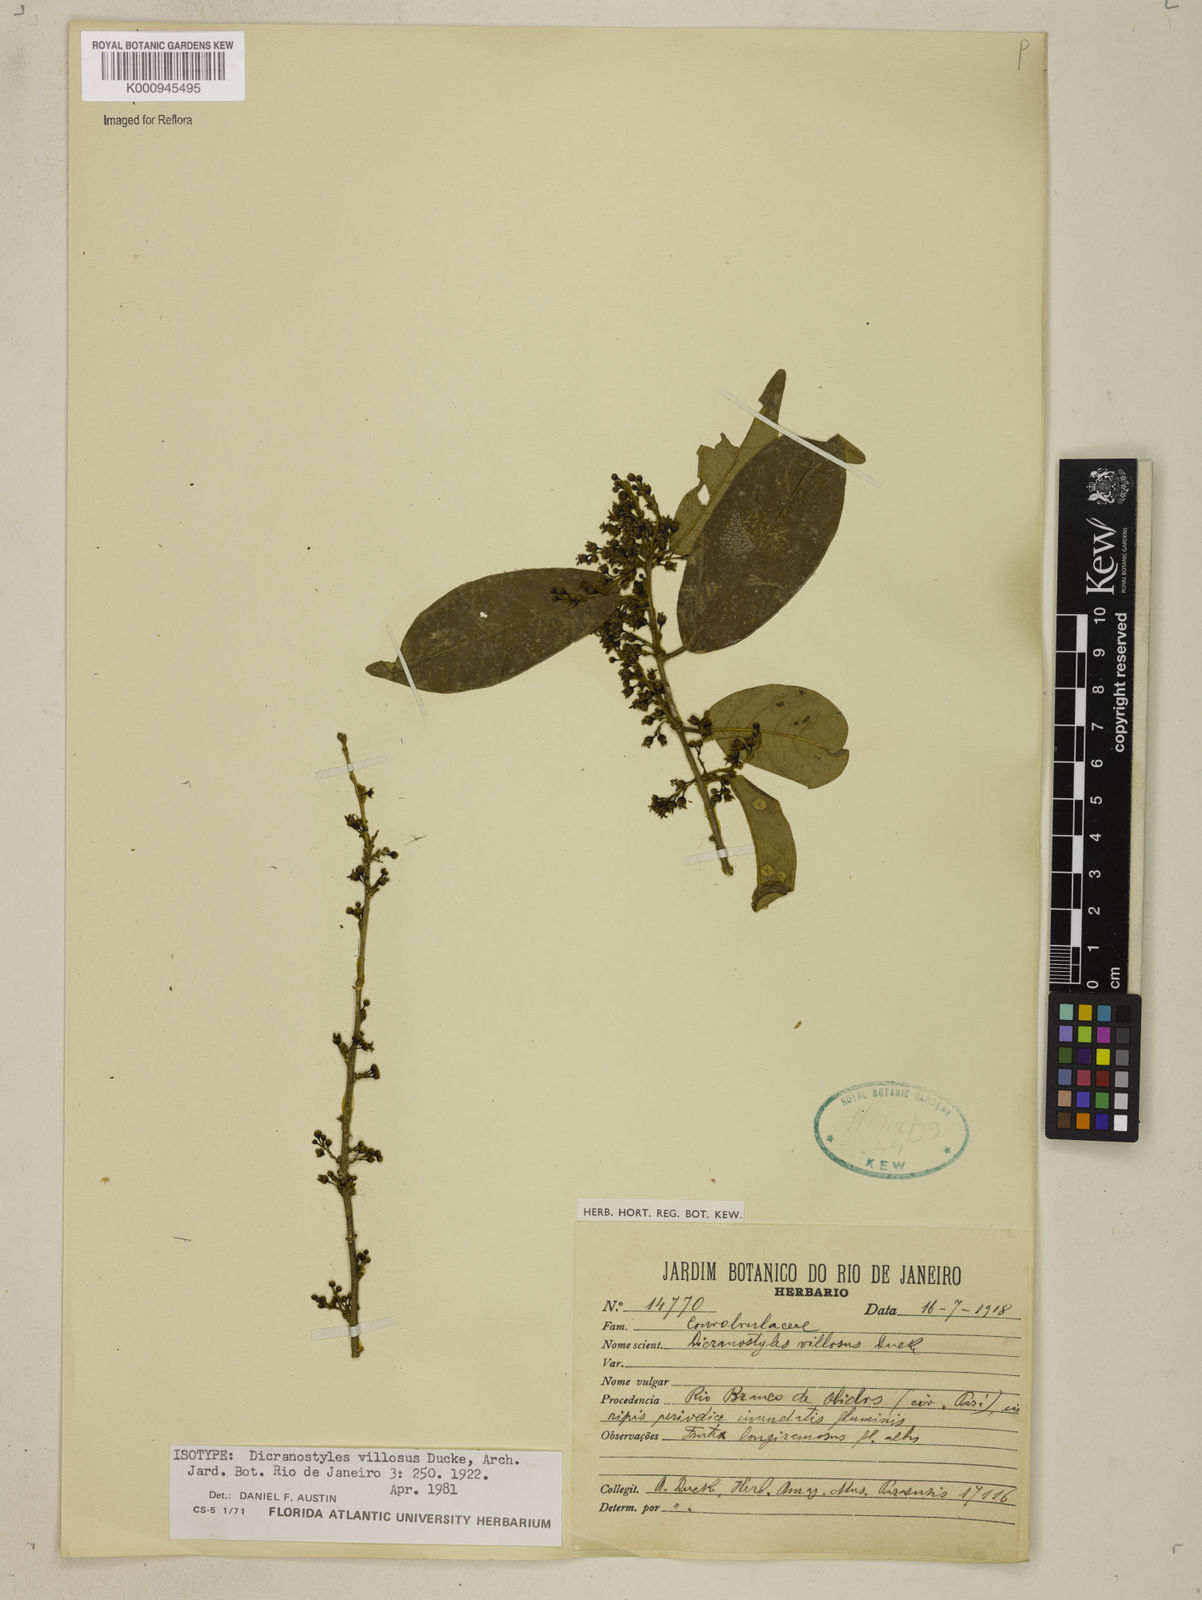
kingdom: Plantae
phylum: Tracheophyta
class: Magnoliopsida
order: Solanales
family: Convolvulaceae
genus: Dicranostyles
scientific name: Dicranostyles villosa
